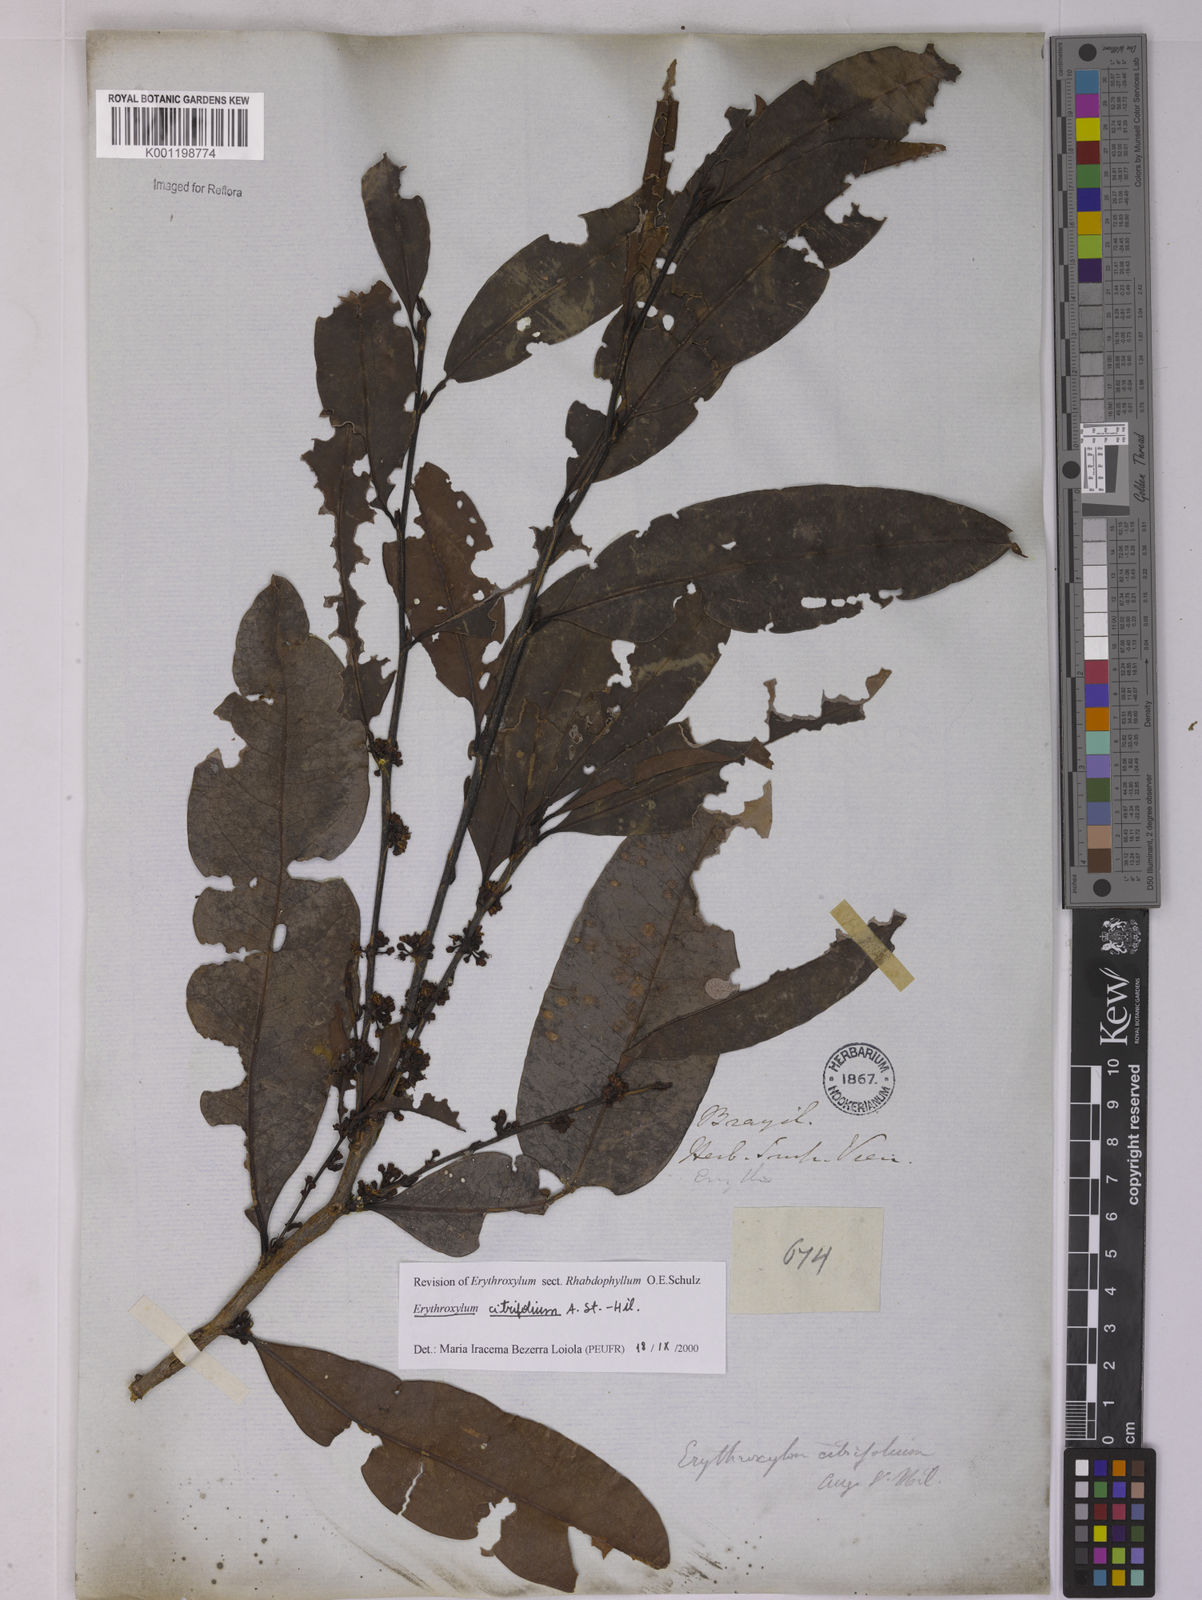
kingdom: Plantae
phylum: Tracheophyta
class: Magnoliopsida
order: Malpighiales
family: Erythroxylaceae
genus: Erythroxylum
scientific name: Erythroxylum citrifolium
